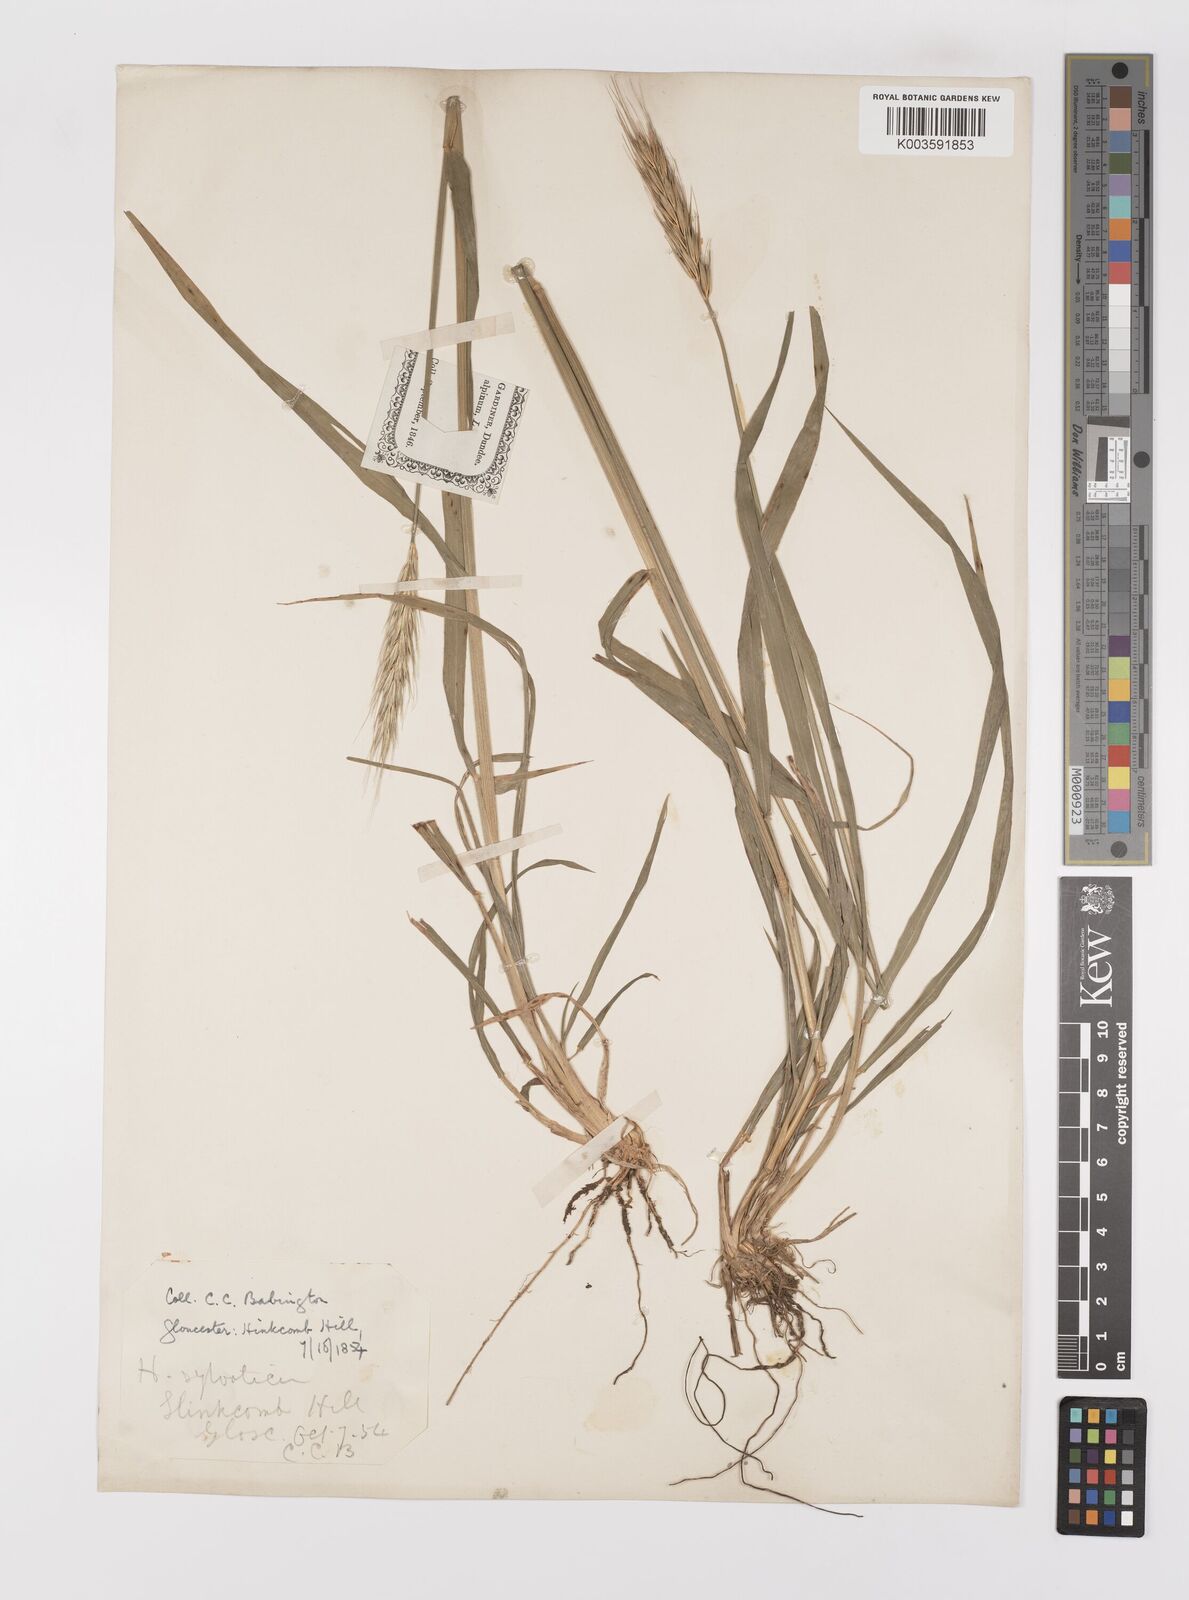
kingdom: Plantae
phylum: Tracheophyta
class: Liliopsida
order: Poales
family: Poaceae
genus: Hordelymus
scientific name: Hordelymus europaeus
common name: Wood-barley
